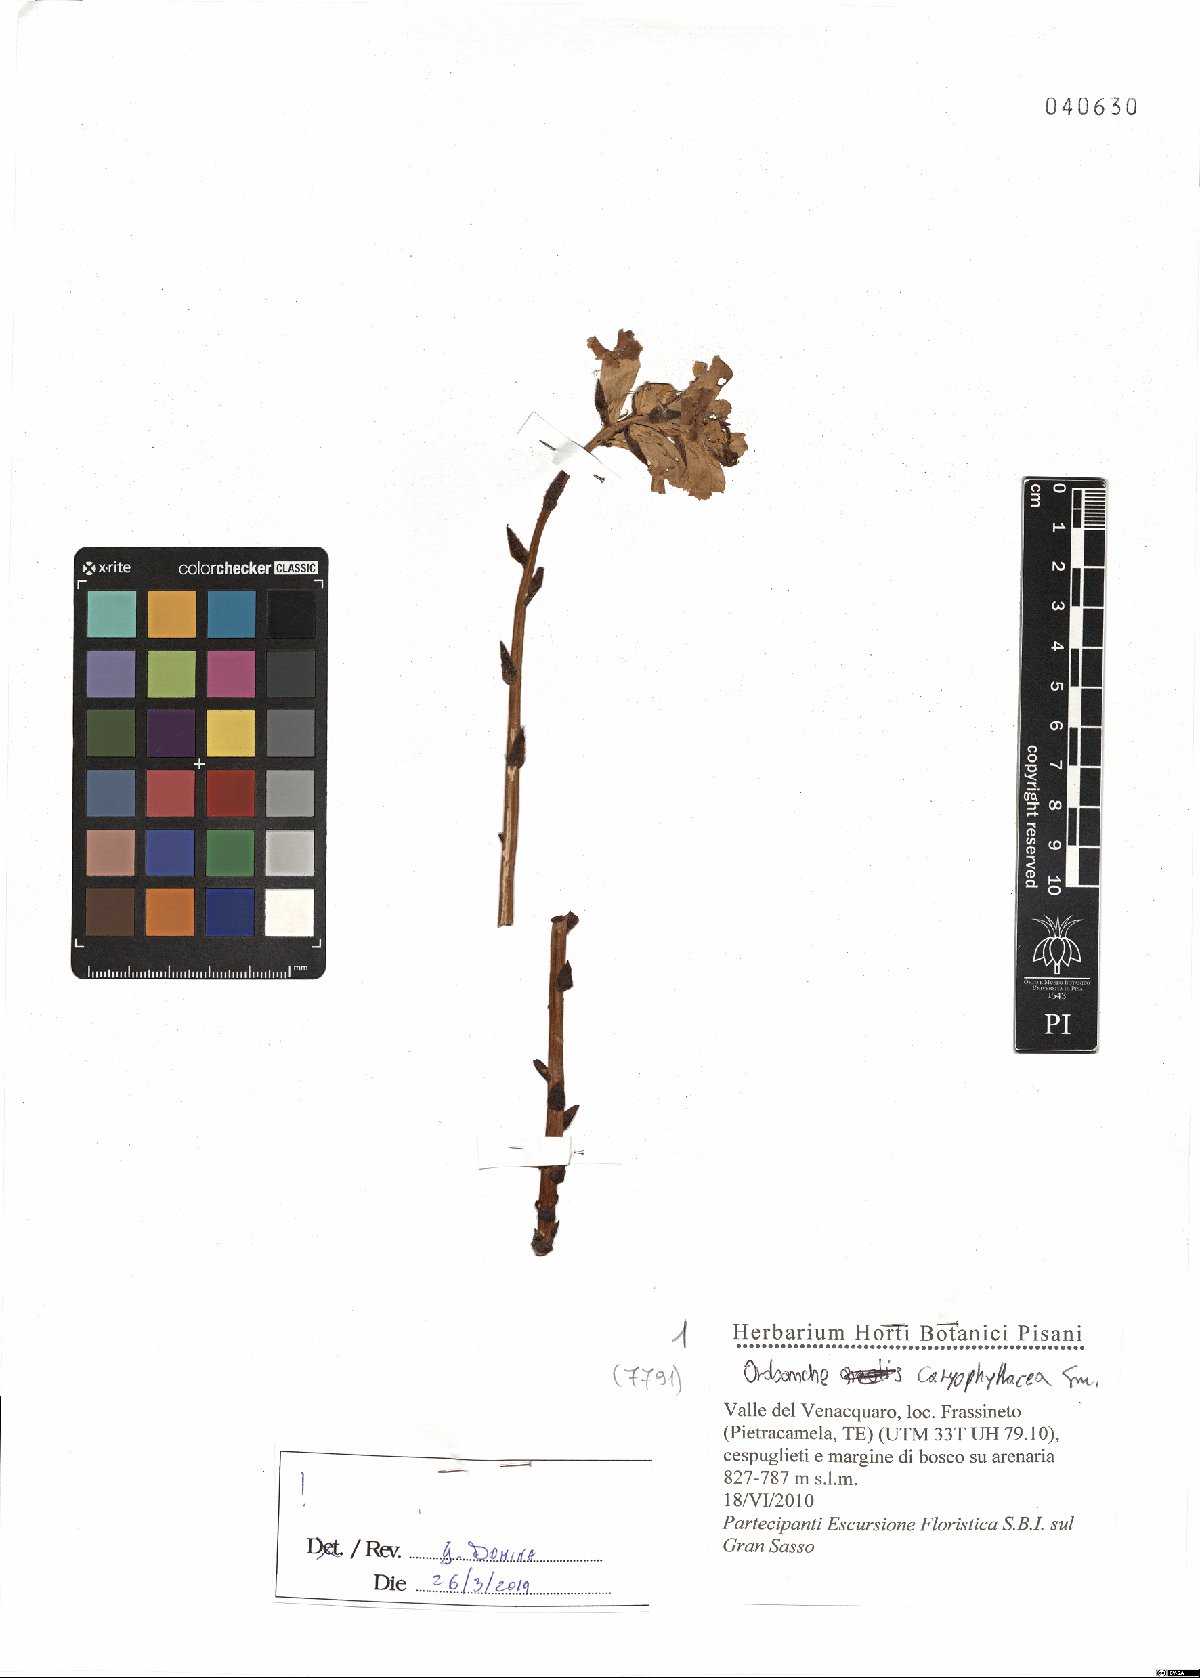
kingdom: Plantae
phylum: Tracheophyta
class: Magnoliopsida
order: Lamiales
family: Orobanchaceae
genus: Orobanche
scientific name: Orobanche caryophyllacea
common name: Bedstraw broomrape
